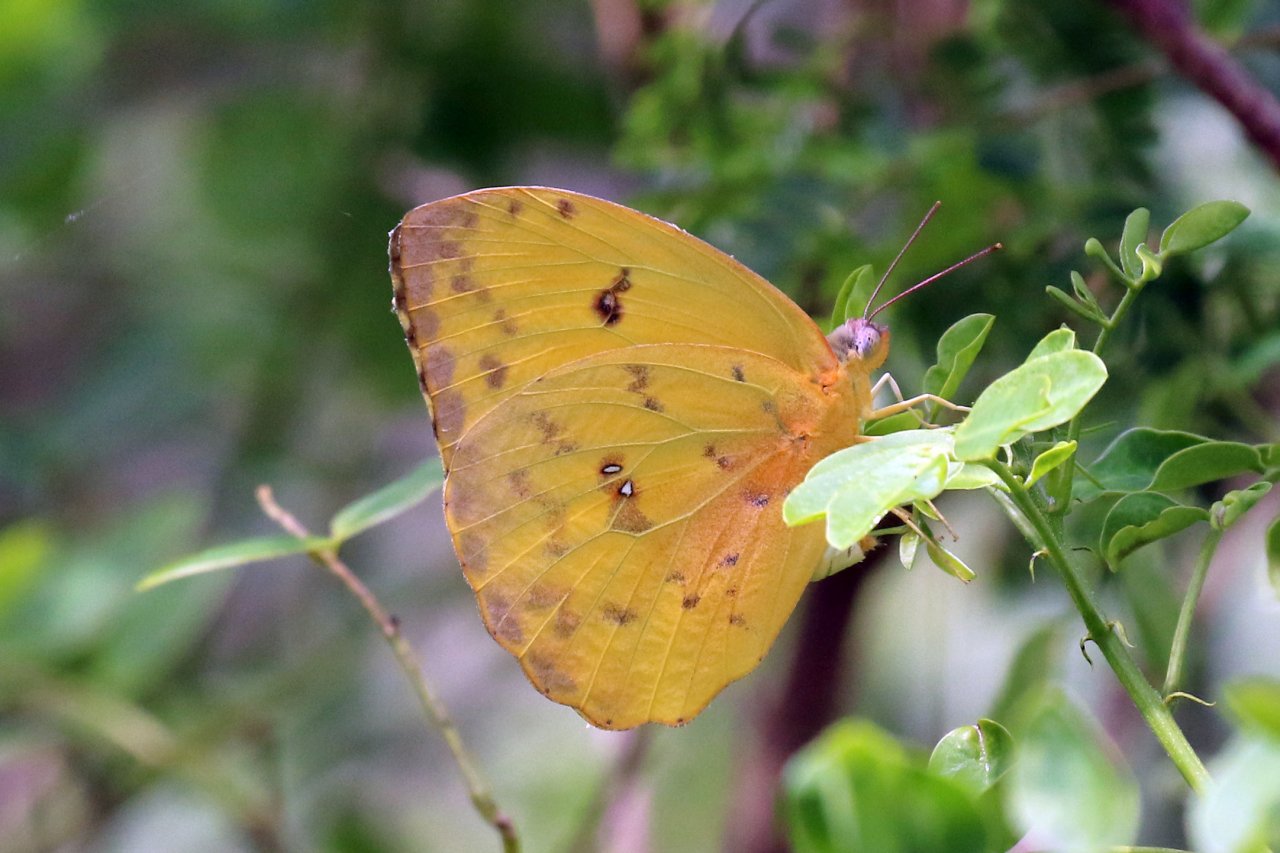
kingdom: Animalia
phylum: Arthropoda
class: Insecta
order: Lepidoptera
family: Pieridae
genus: Phoebis
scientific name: Phoebis philea
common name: Orange-barred Sulphur
